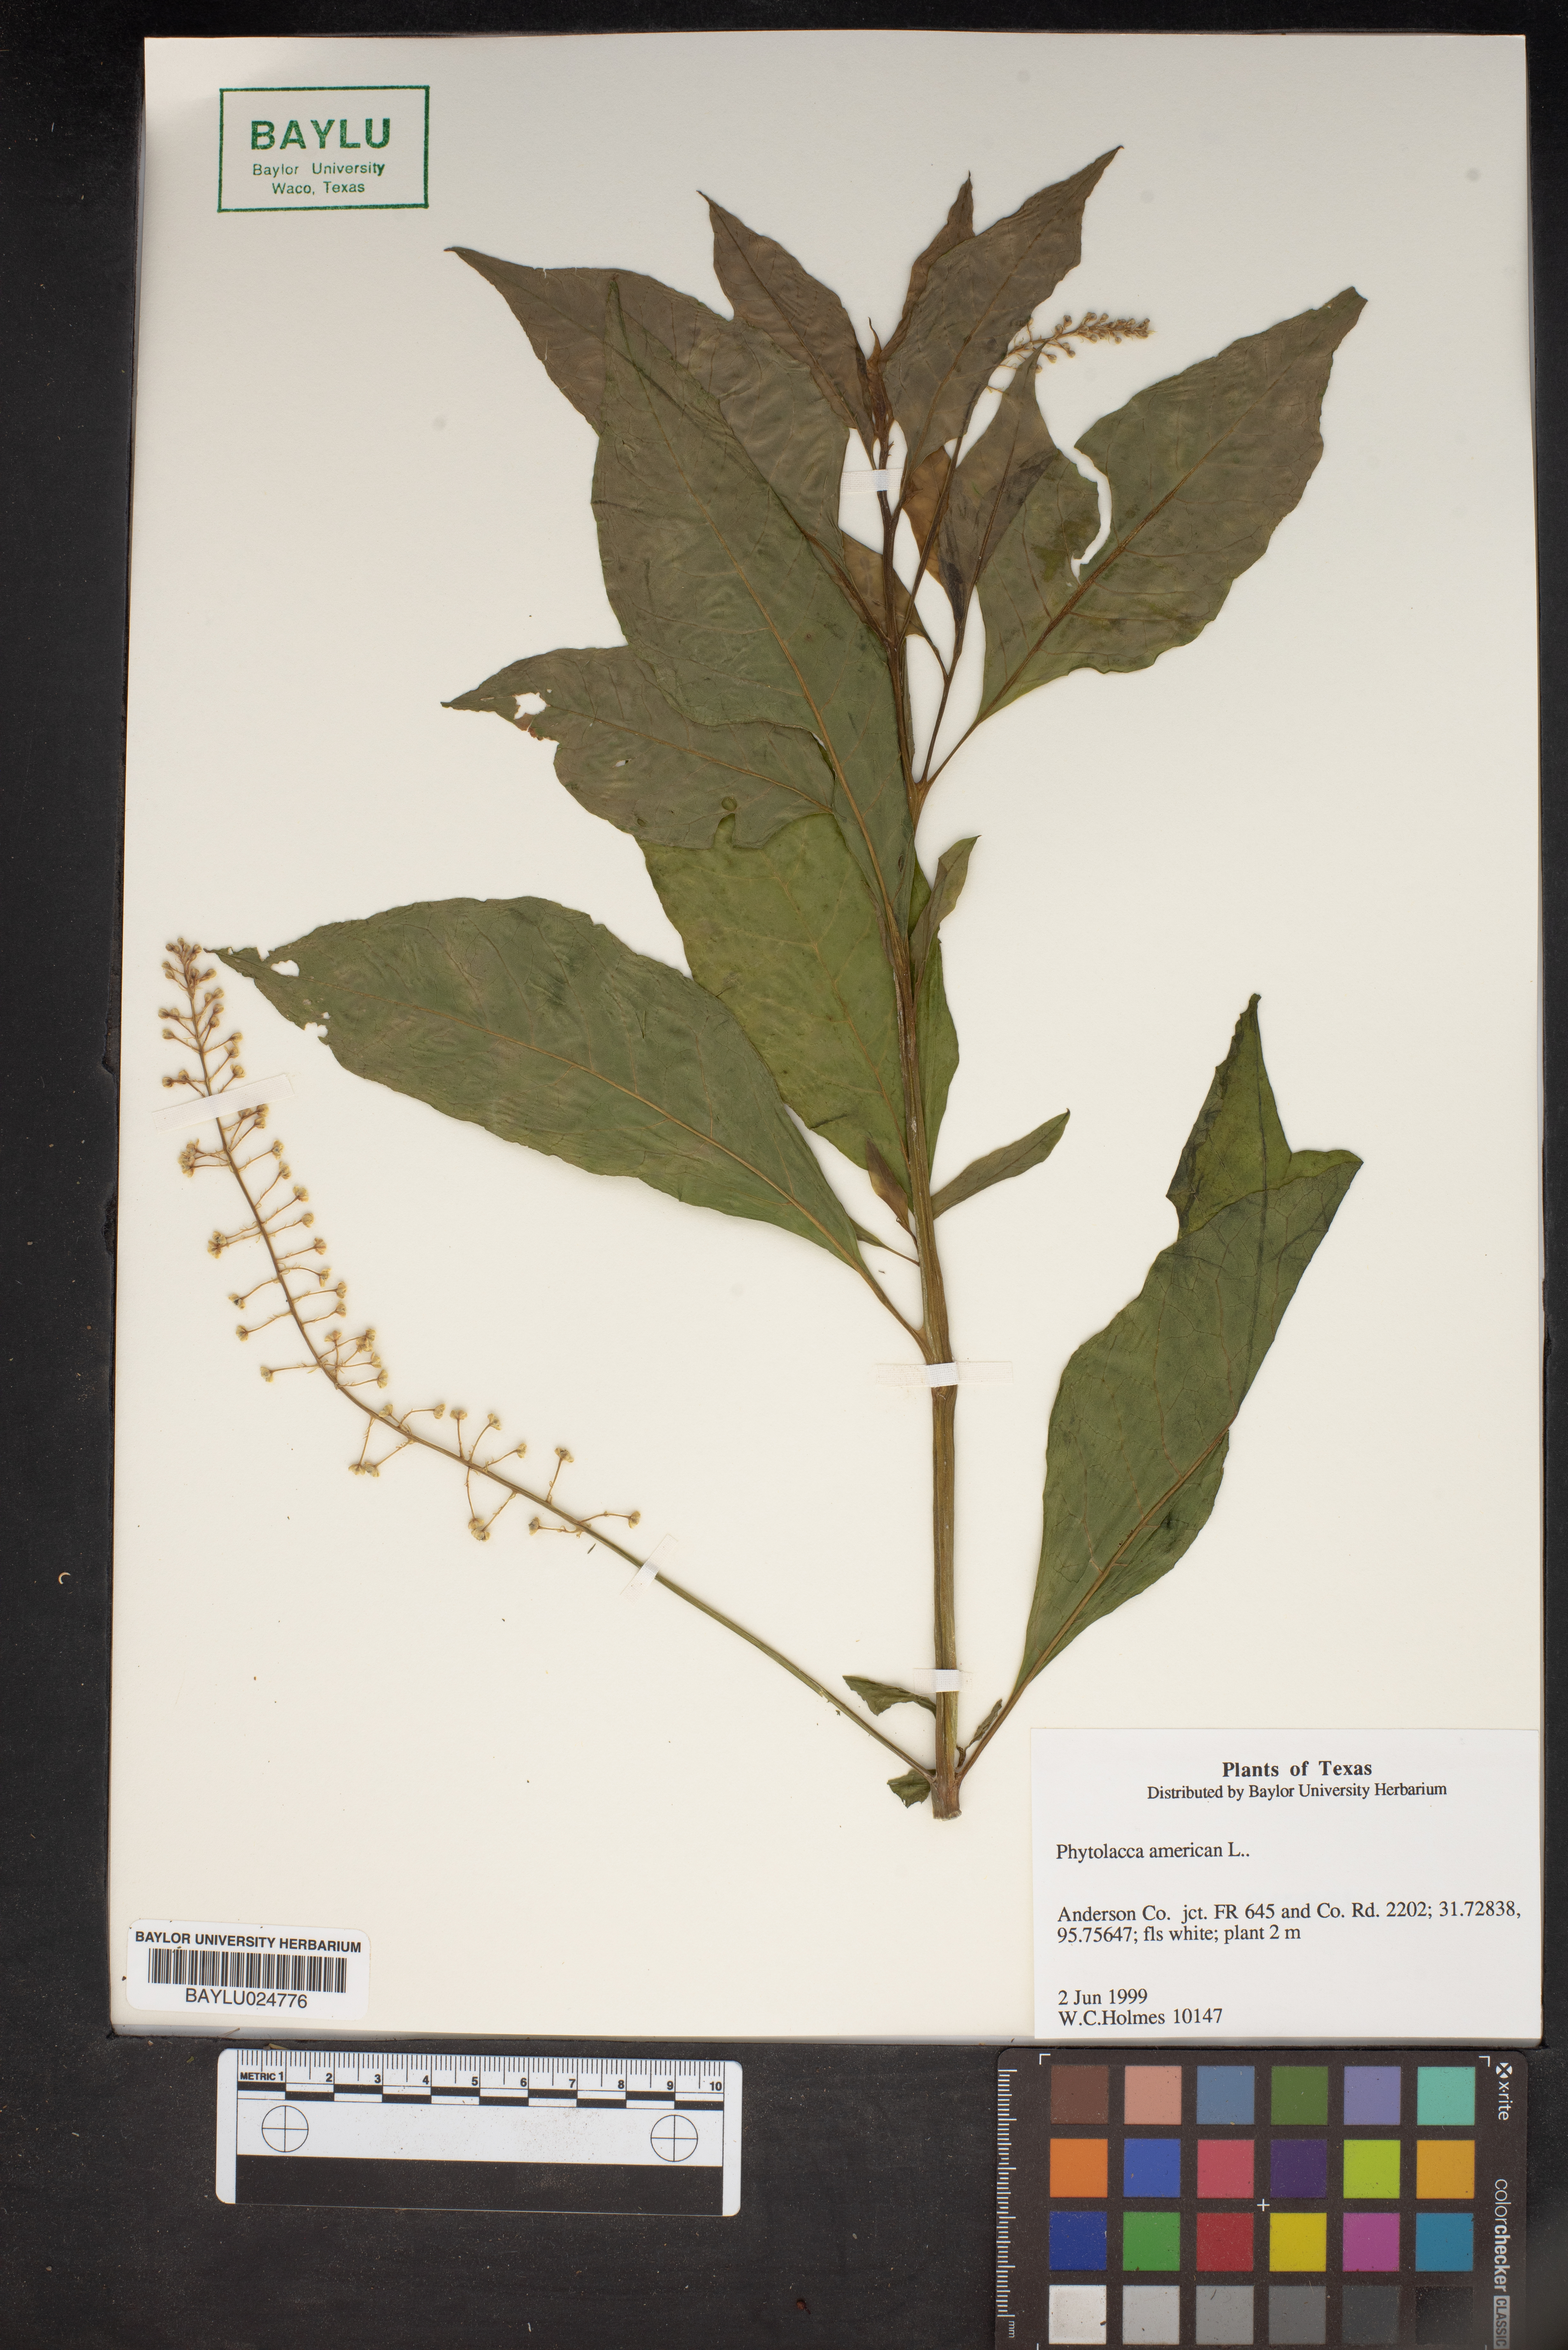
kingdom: Plantae
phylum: Tracheophyta
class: Magnoliopsida
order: Caryophyllales
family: Phytolaccaceae
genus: Phytolacca
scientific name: Phytolacca americana
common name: American pokeweed
